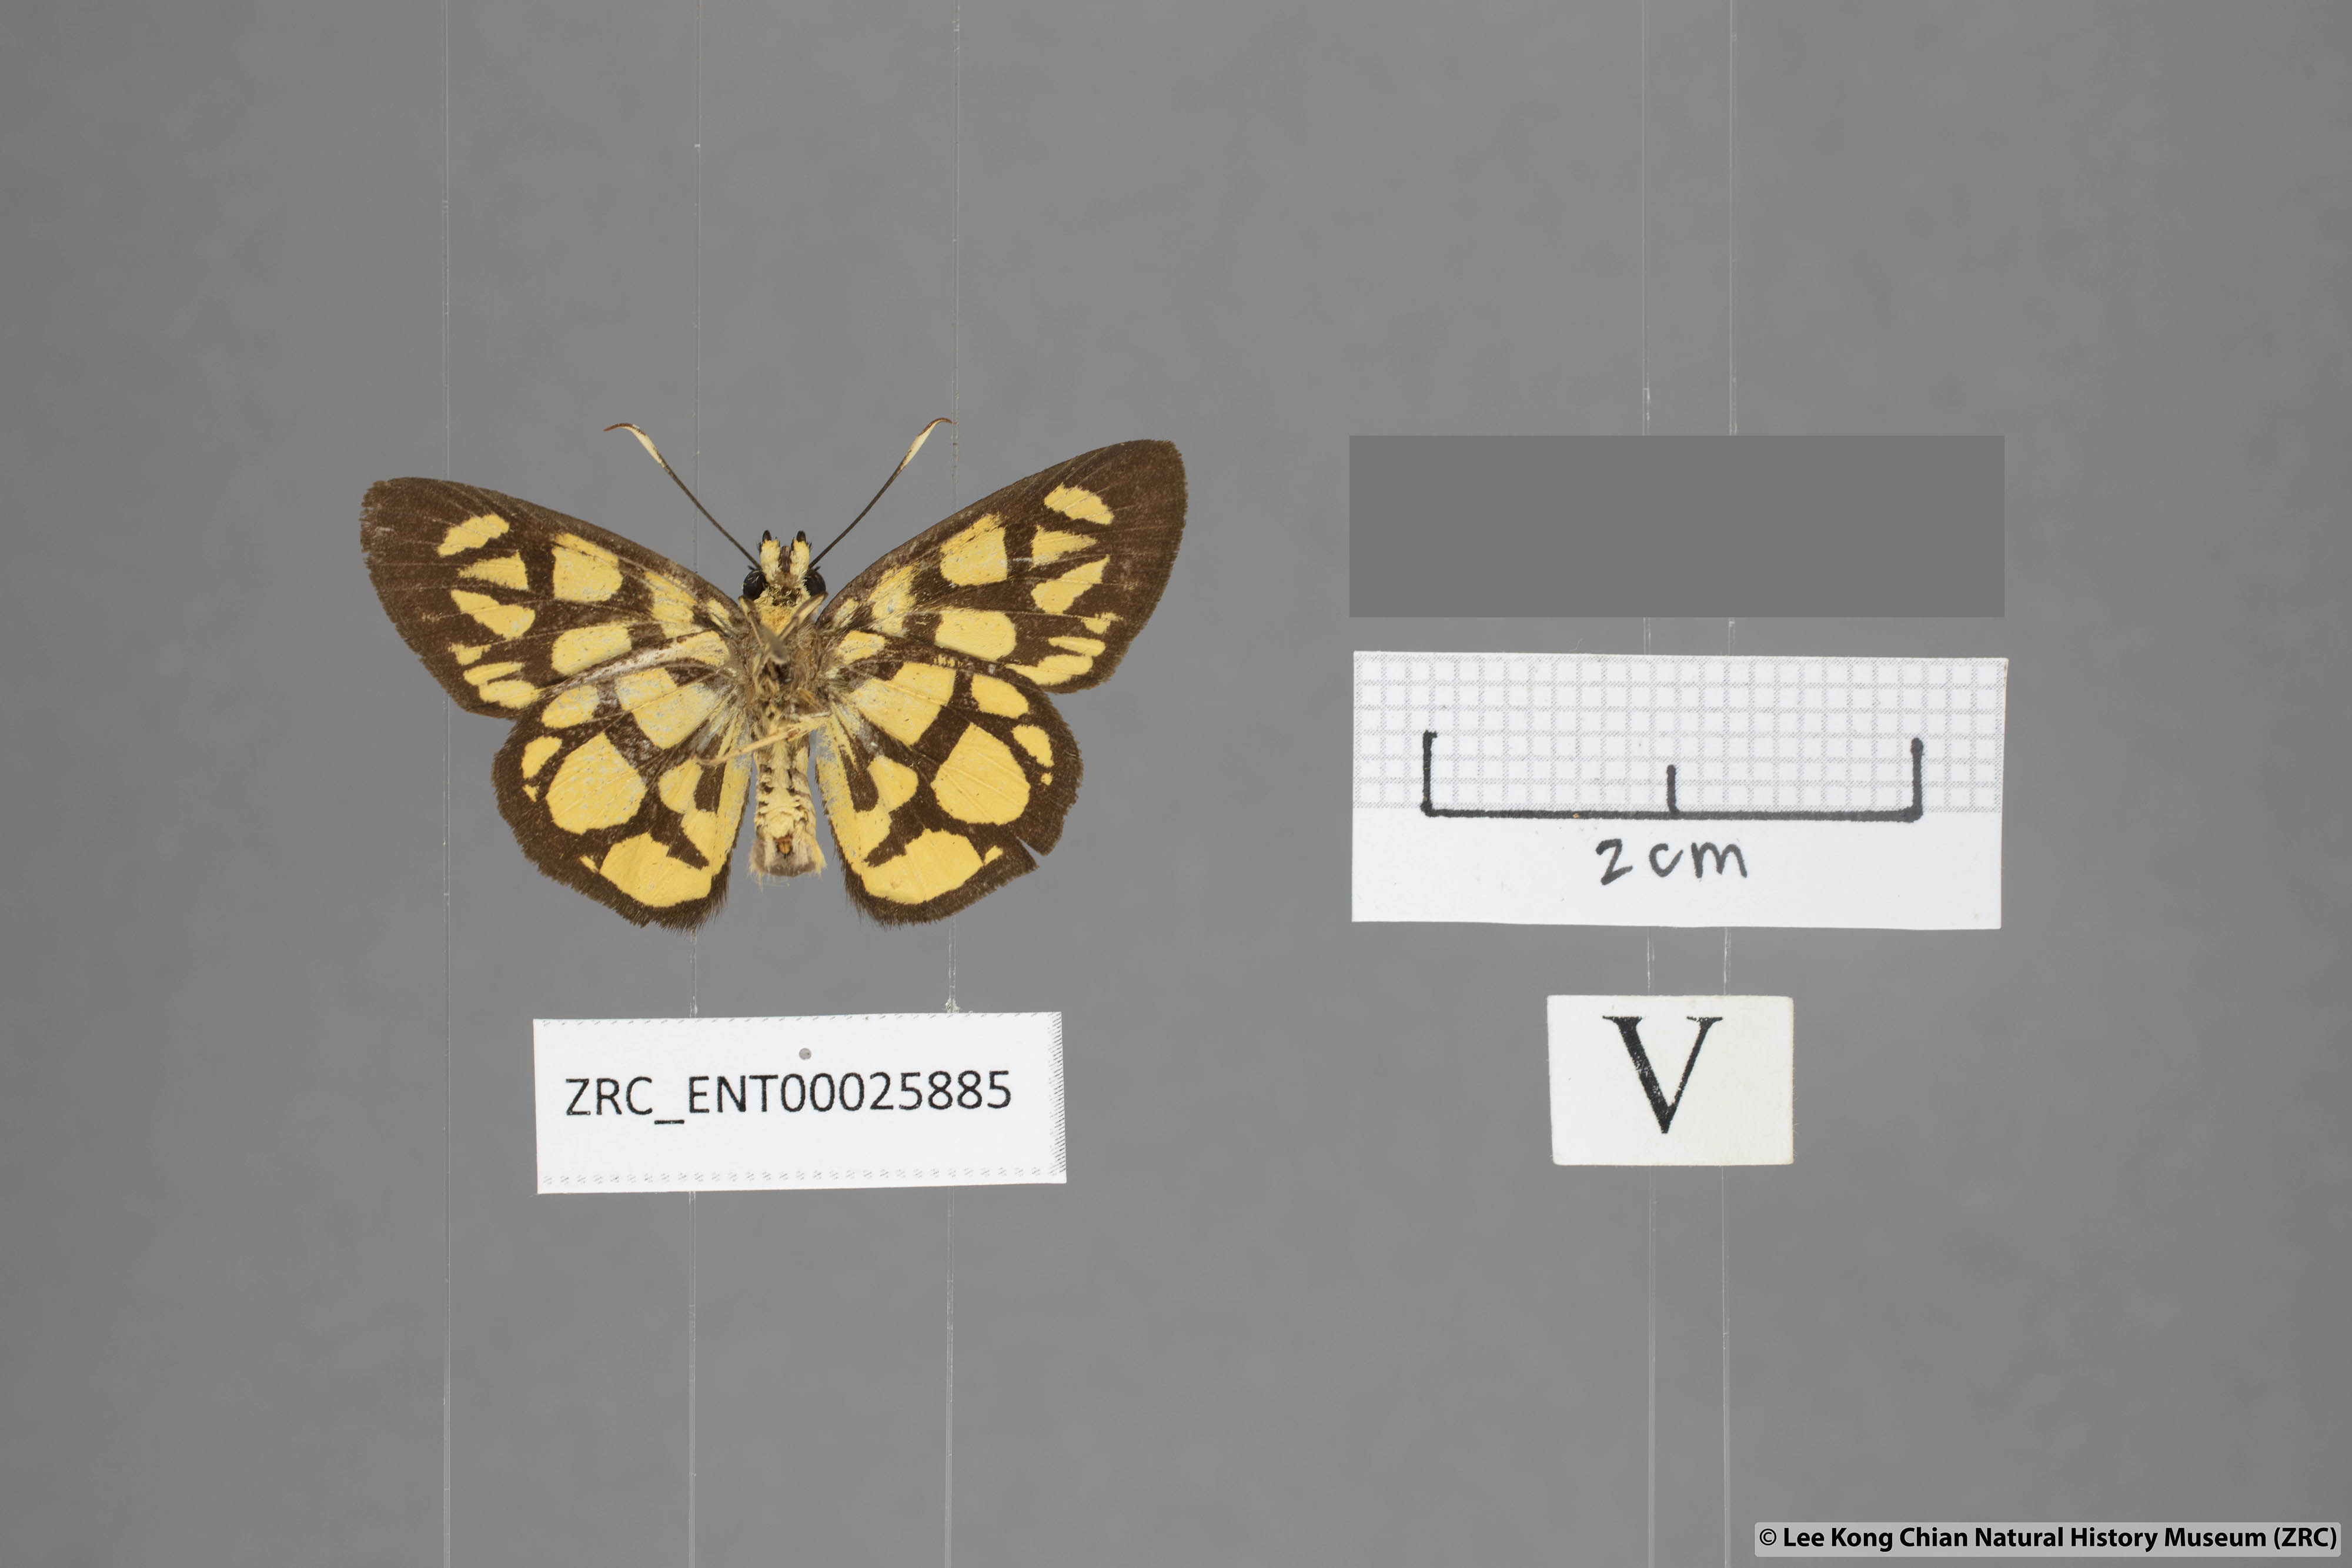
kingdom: Animalia
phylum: Arthropoda
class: Insecta
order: Lepidoptera
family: Hesperiidae
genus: Odina
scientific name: Odina hieroglyphica
